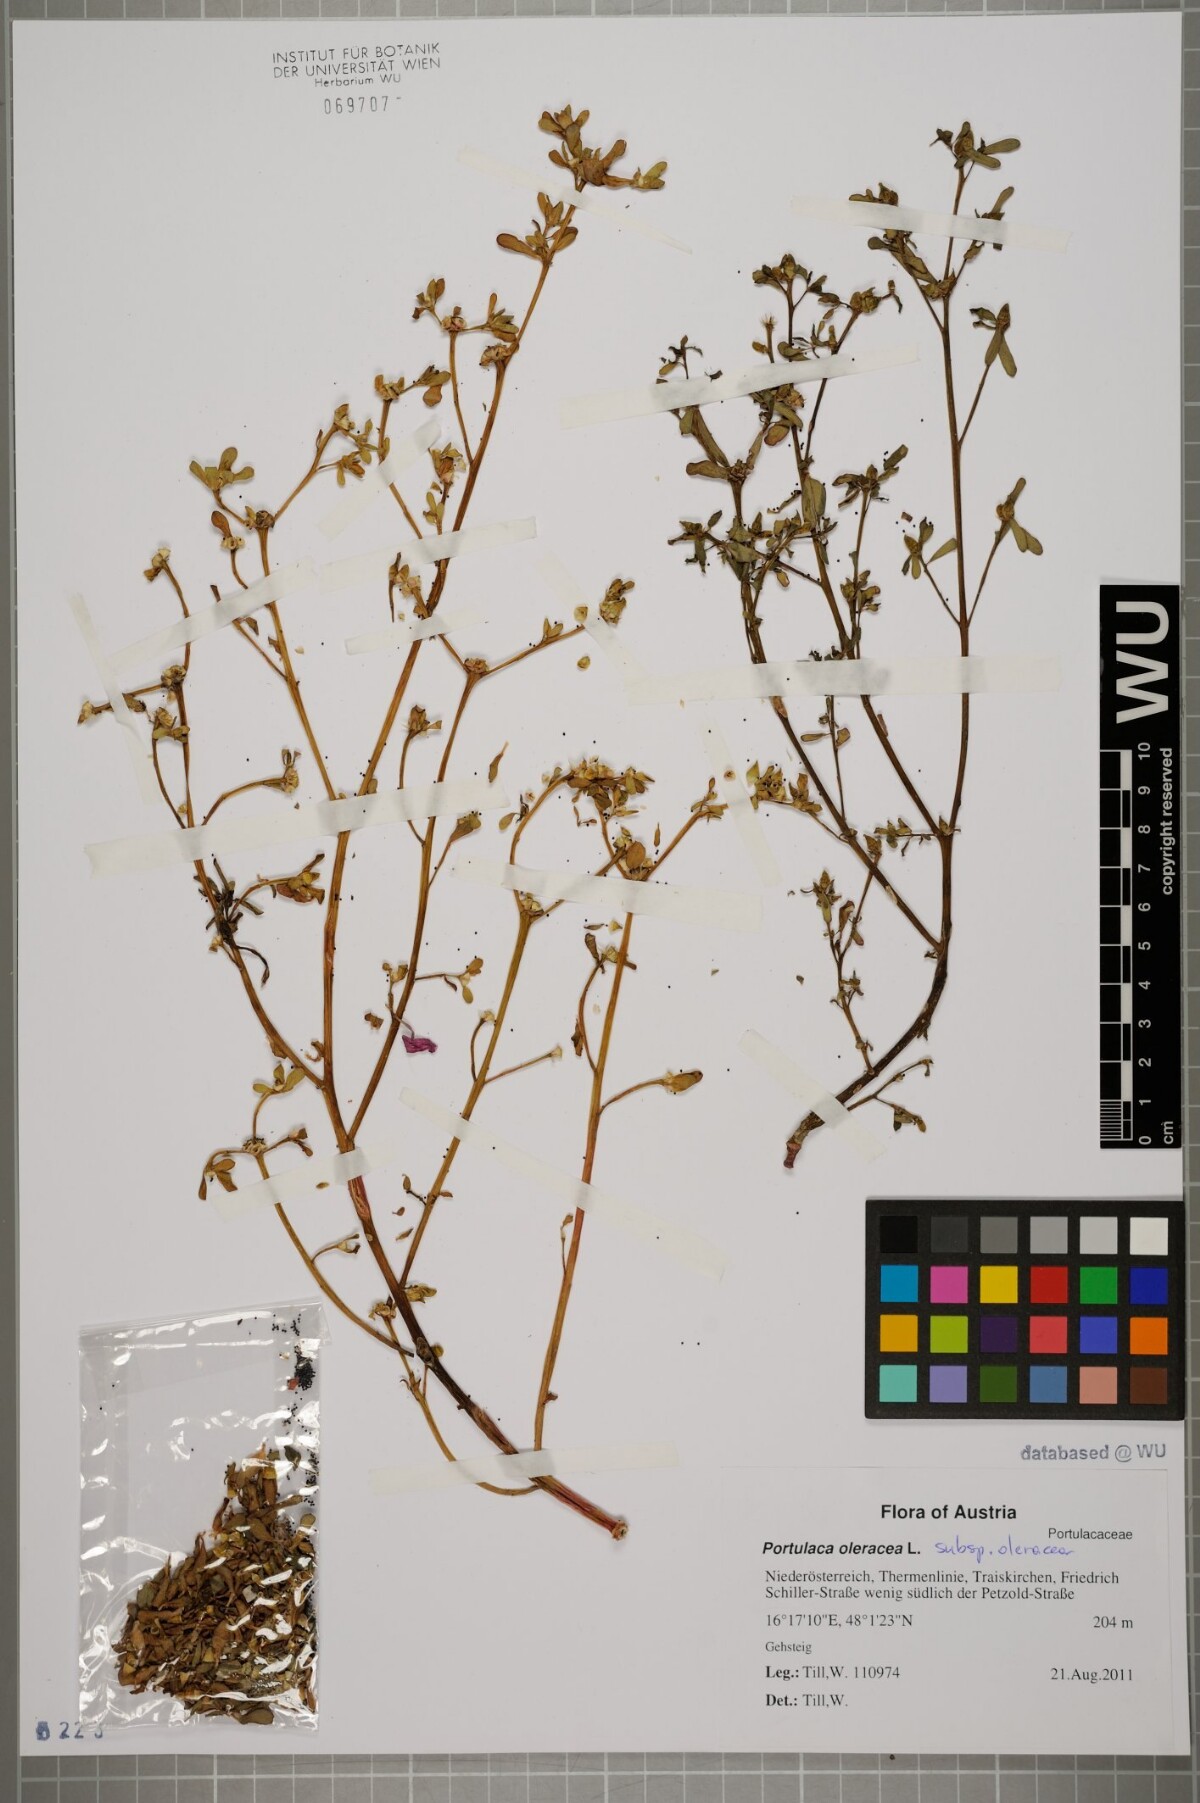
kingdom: Plantae
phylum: Tracheophyta
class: Magnoliopsida
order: Caryophyllales
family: Portulacaceae
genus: Portulaca
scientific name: Portulaca oleracea
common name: Common purslane
